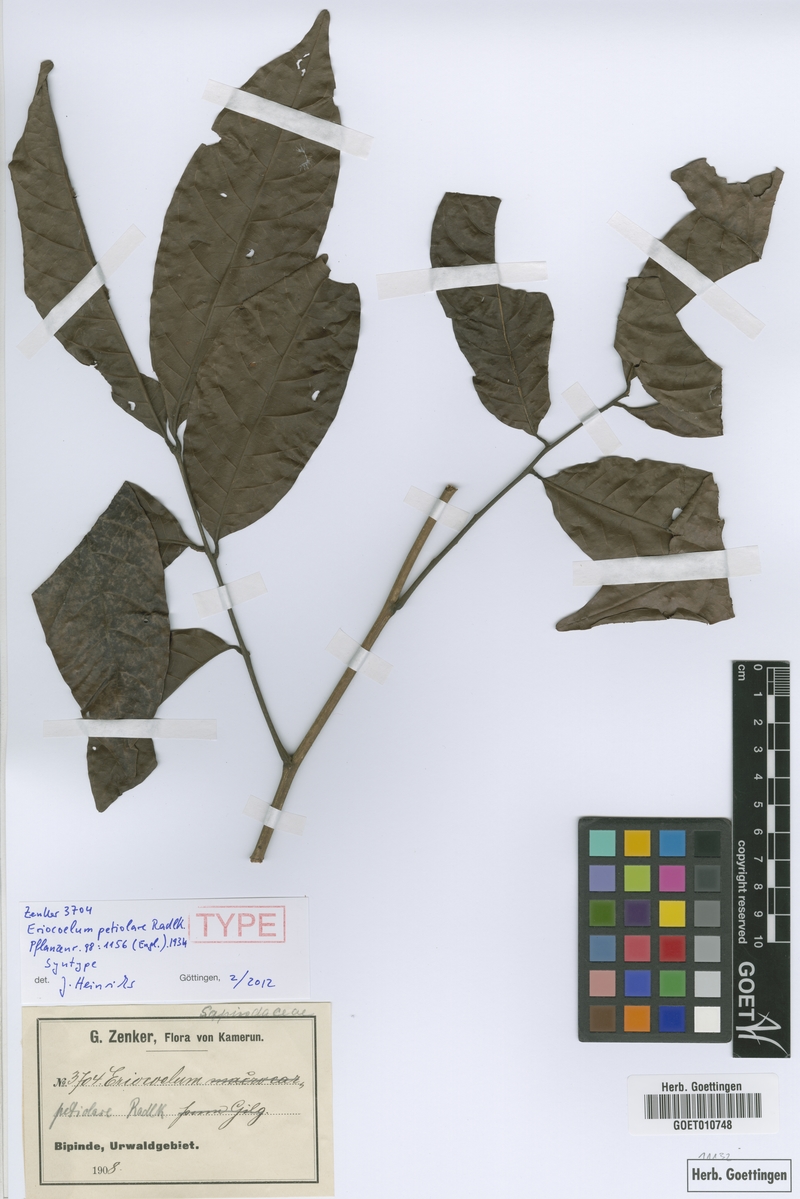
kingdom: Plantae
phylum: Tracheophyta
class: Magnoliopsida
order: Sapindales
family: Sapindaceae
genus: Eriocoelum
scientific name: Eriocoelum petiolare
